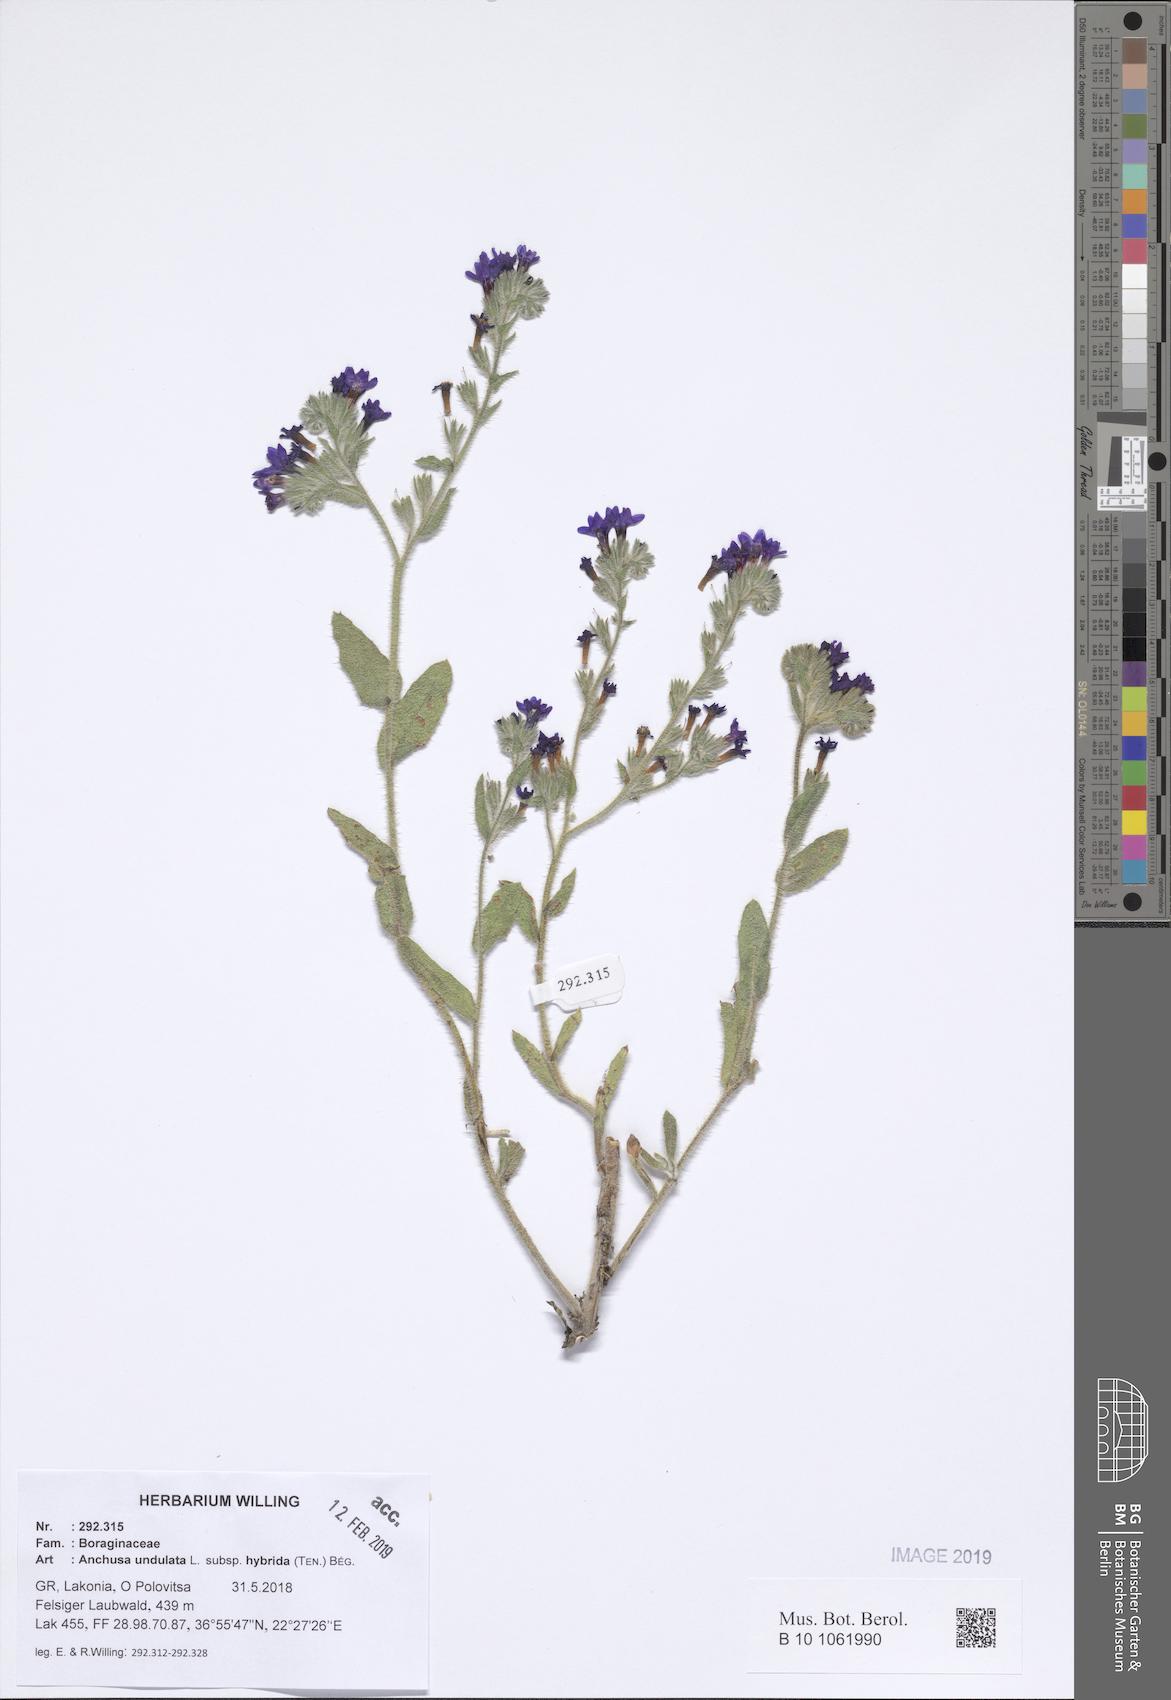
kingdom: Plantae
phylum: Tracheophyta
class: Magnoliopsida
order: Boraginales
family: Boraginaceae
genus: Anchusa
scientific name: Anchusa undulata
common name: Undulate alkanet
